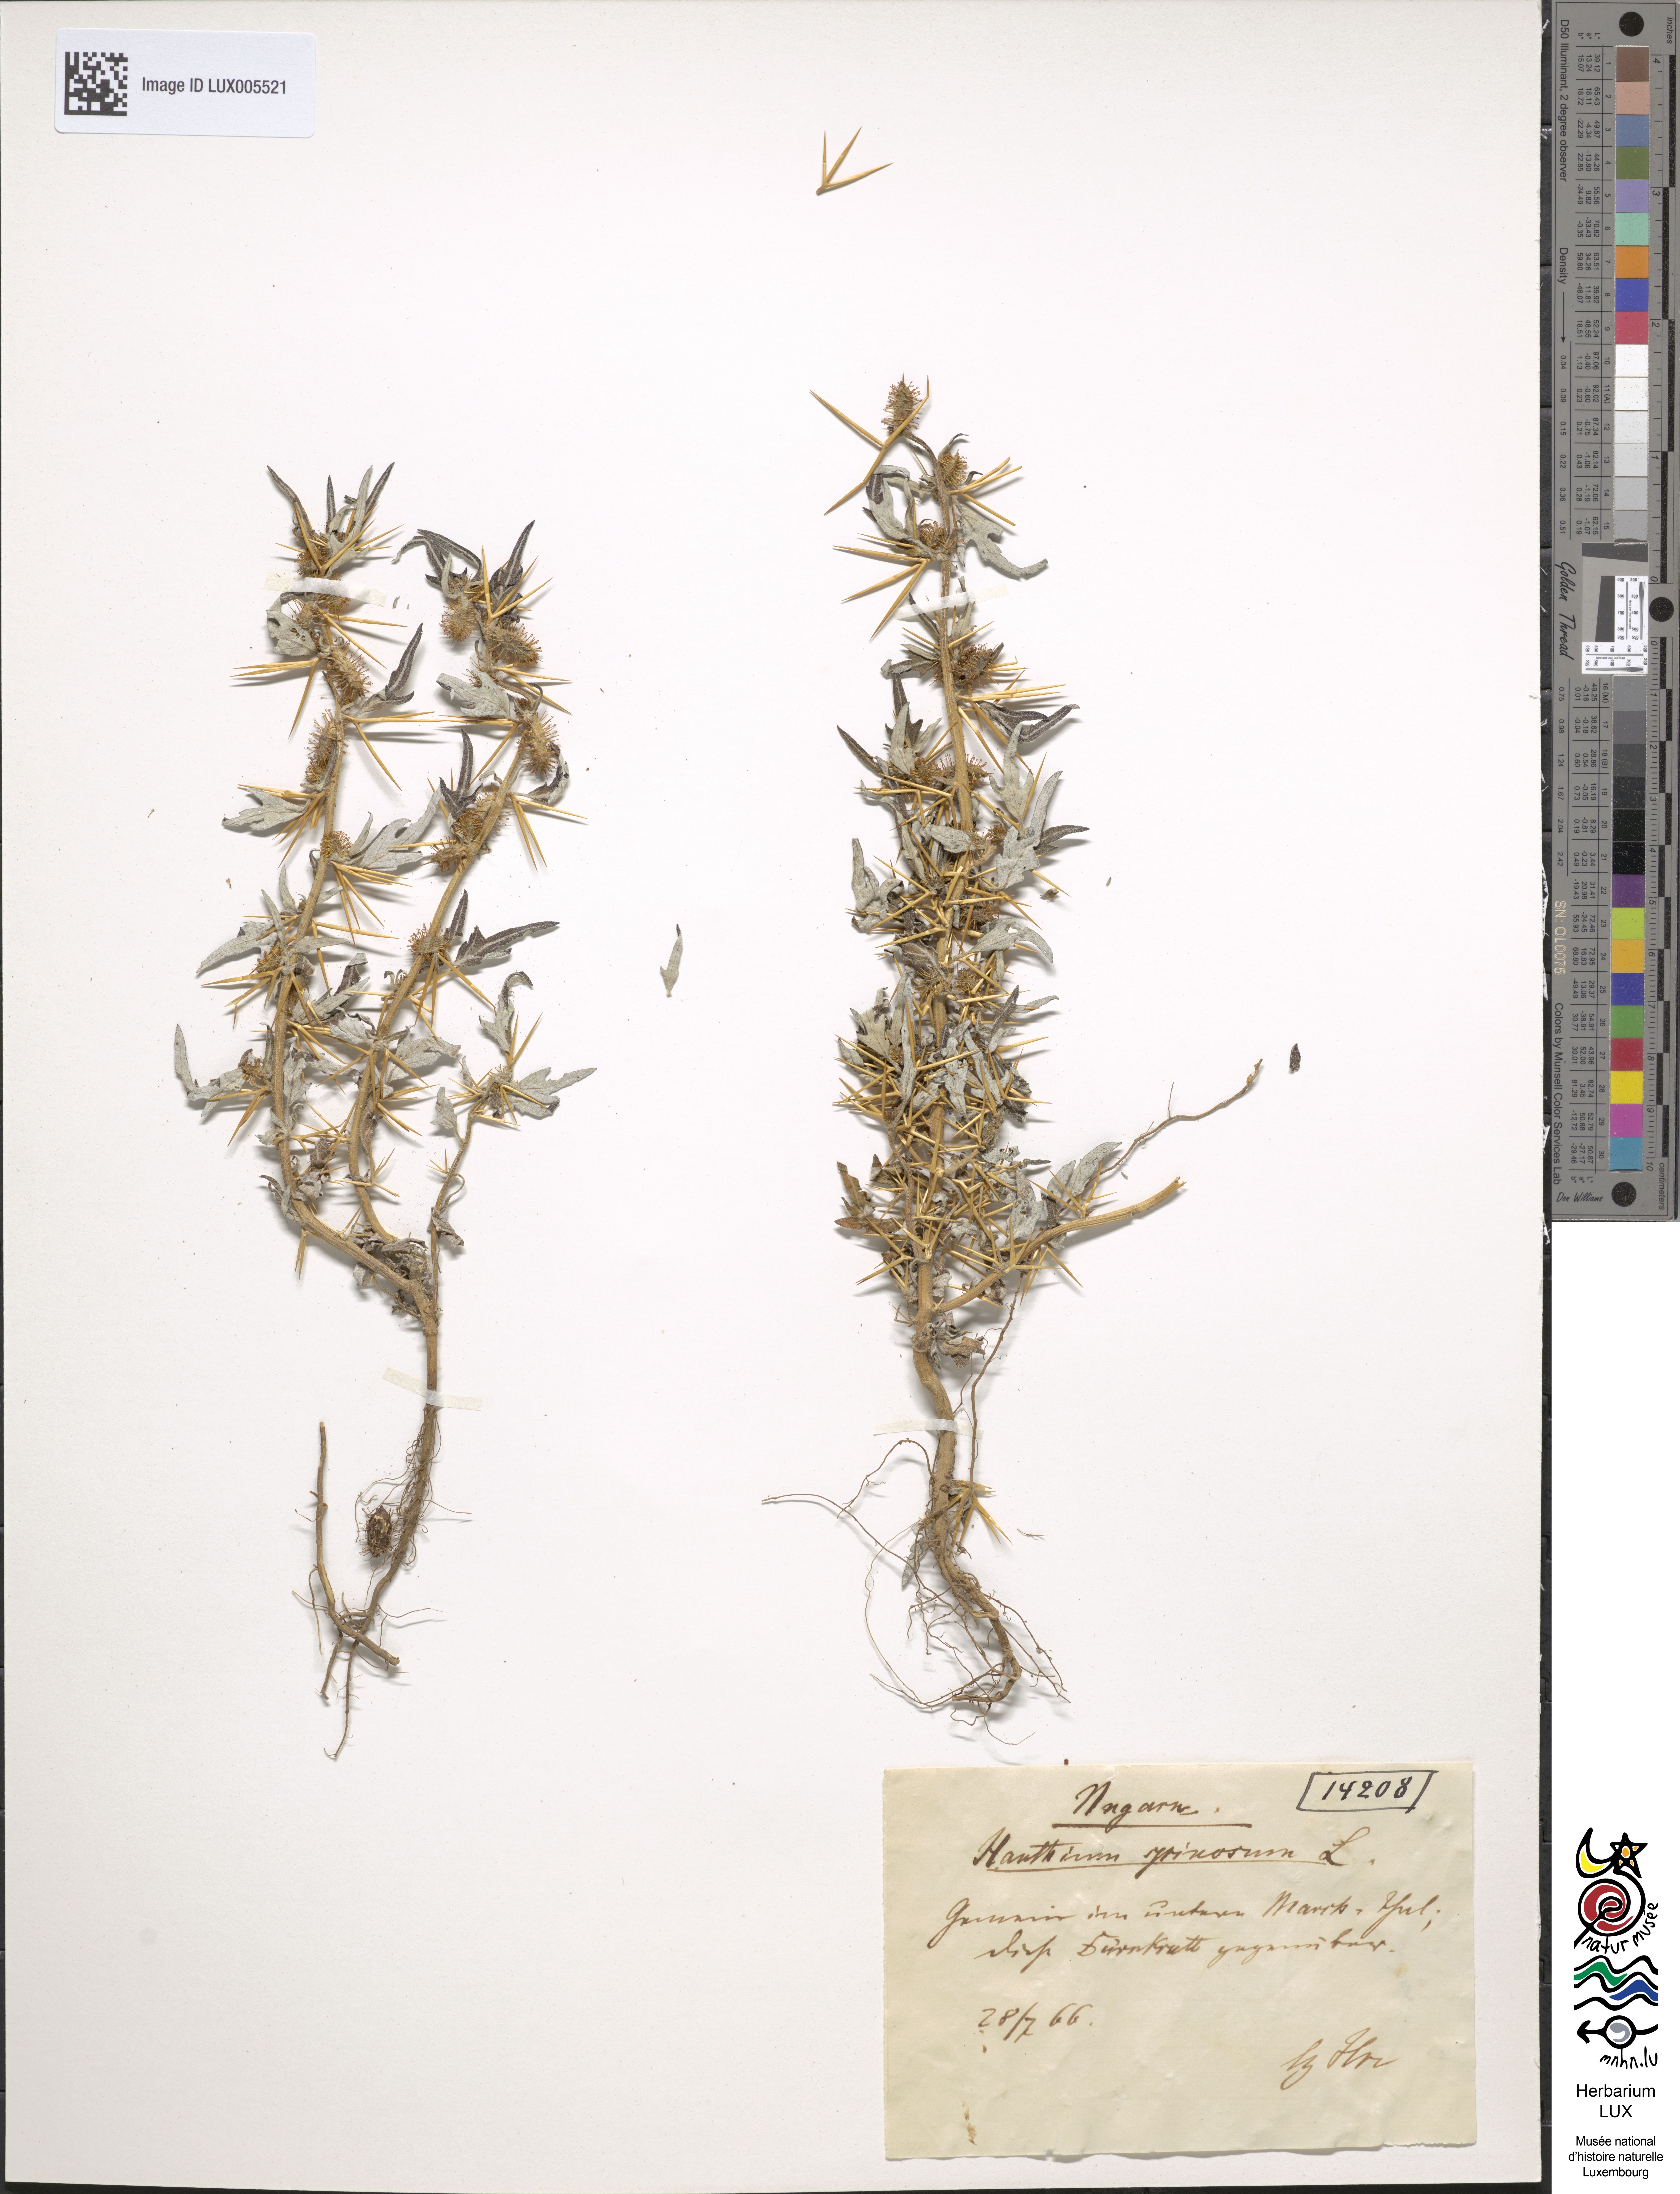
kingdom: Plantae
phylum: Tracheophyta
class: Magnoliopsida
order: Asterales
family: Asteraceae
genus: Xanthium
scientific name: Xanthium spinosum
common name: Spiny cocklebur
